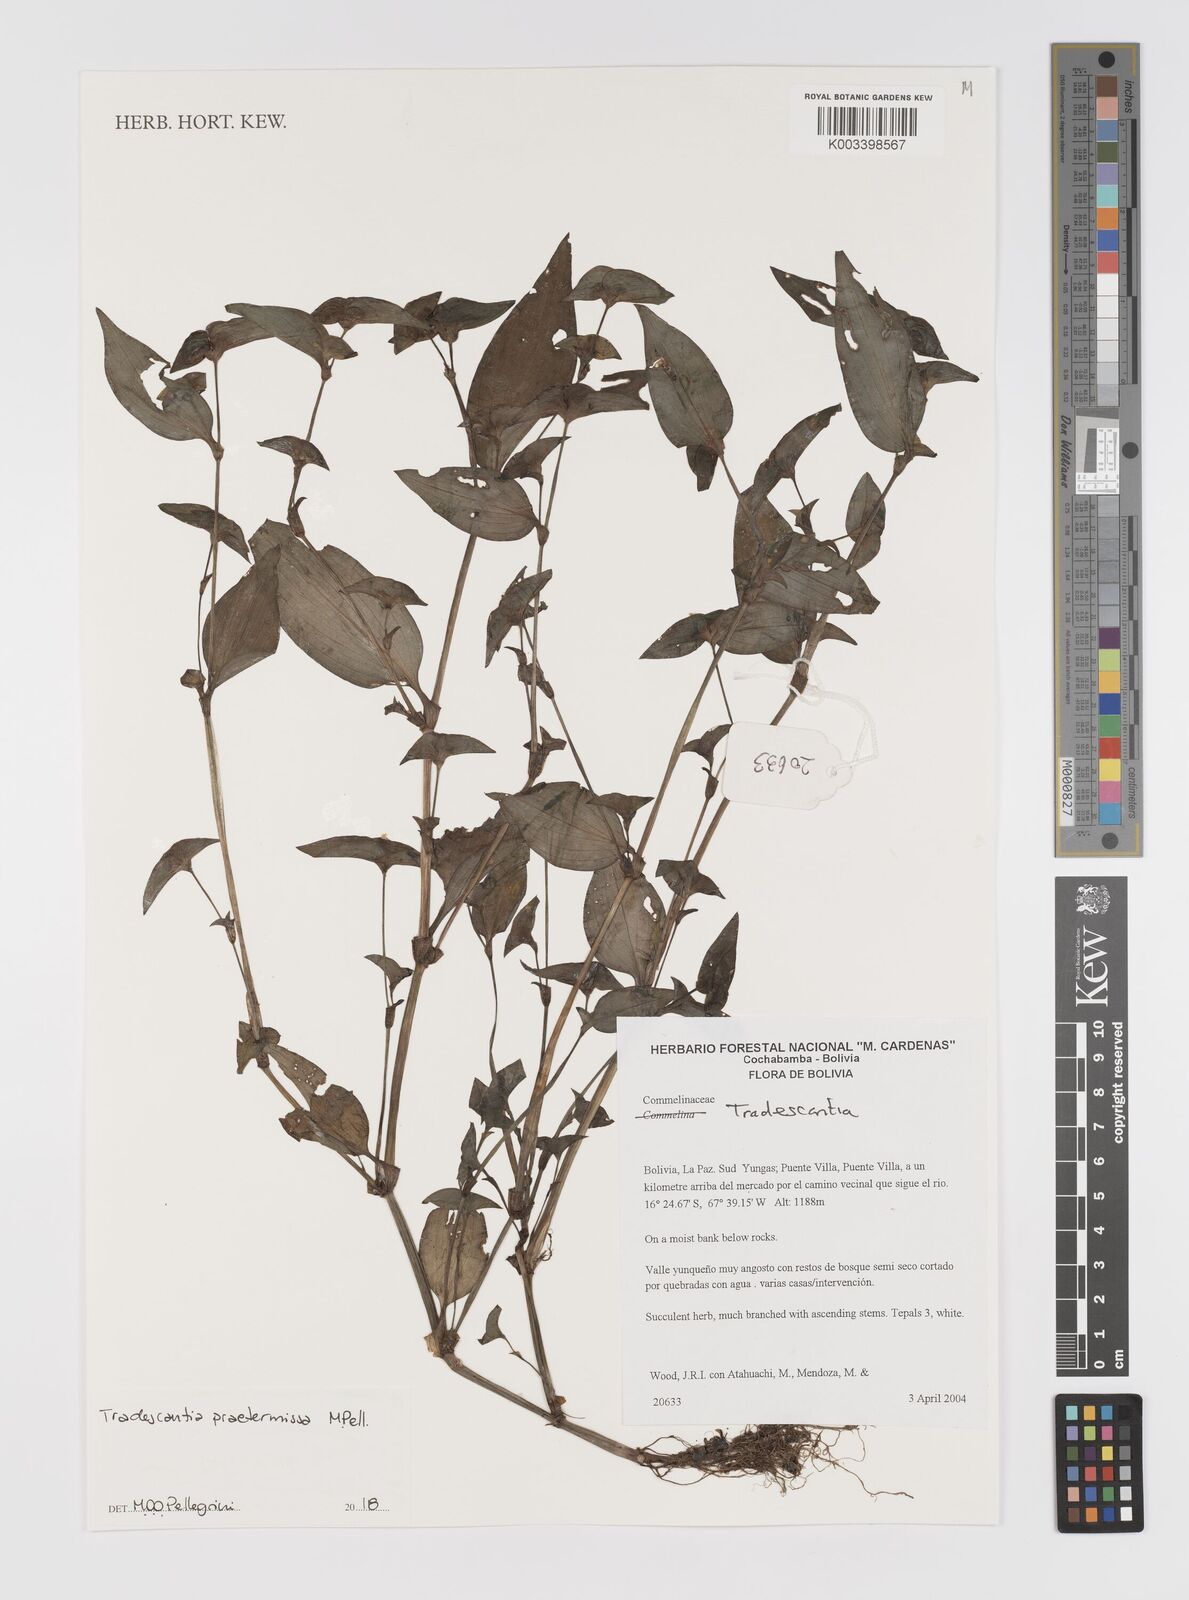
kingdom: Plantae
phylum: Tracheophyta
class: Liliopsida
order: Commelinales
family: Commelinaceae
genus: Tradescantia
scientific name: Tradescantia praetermissa
